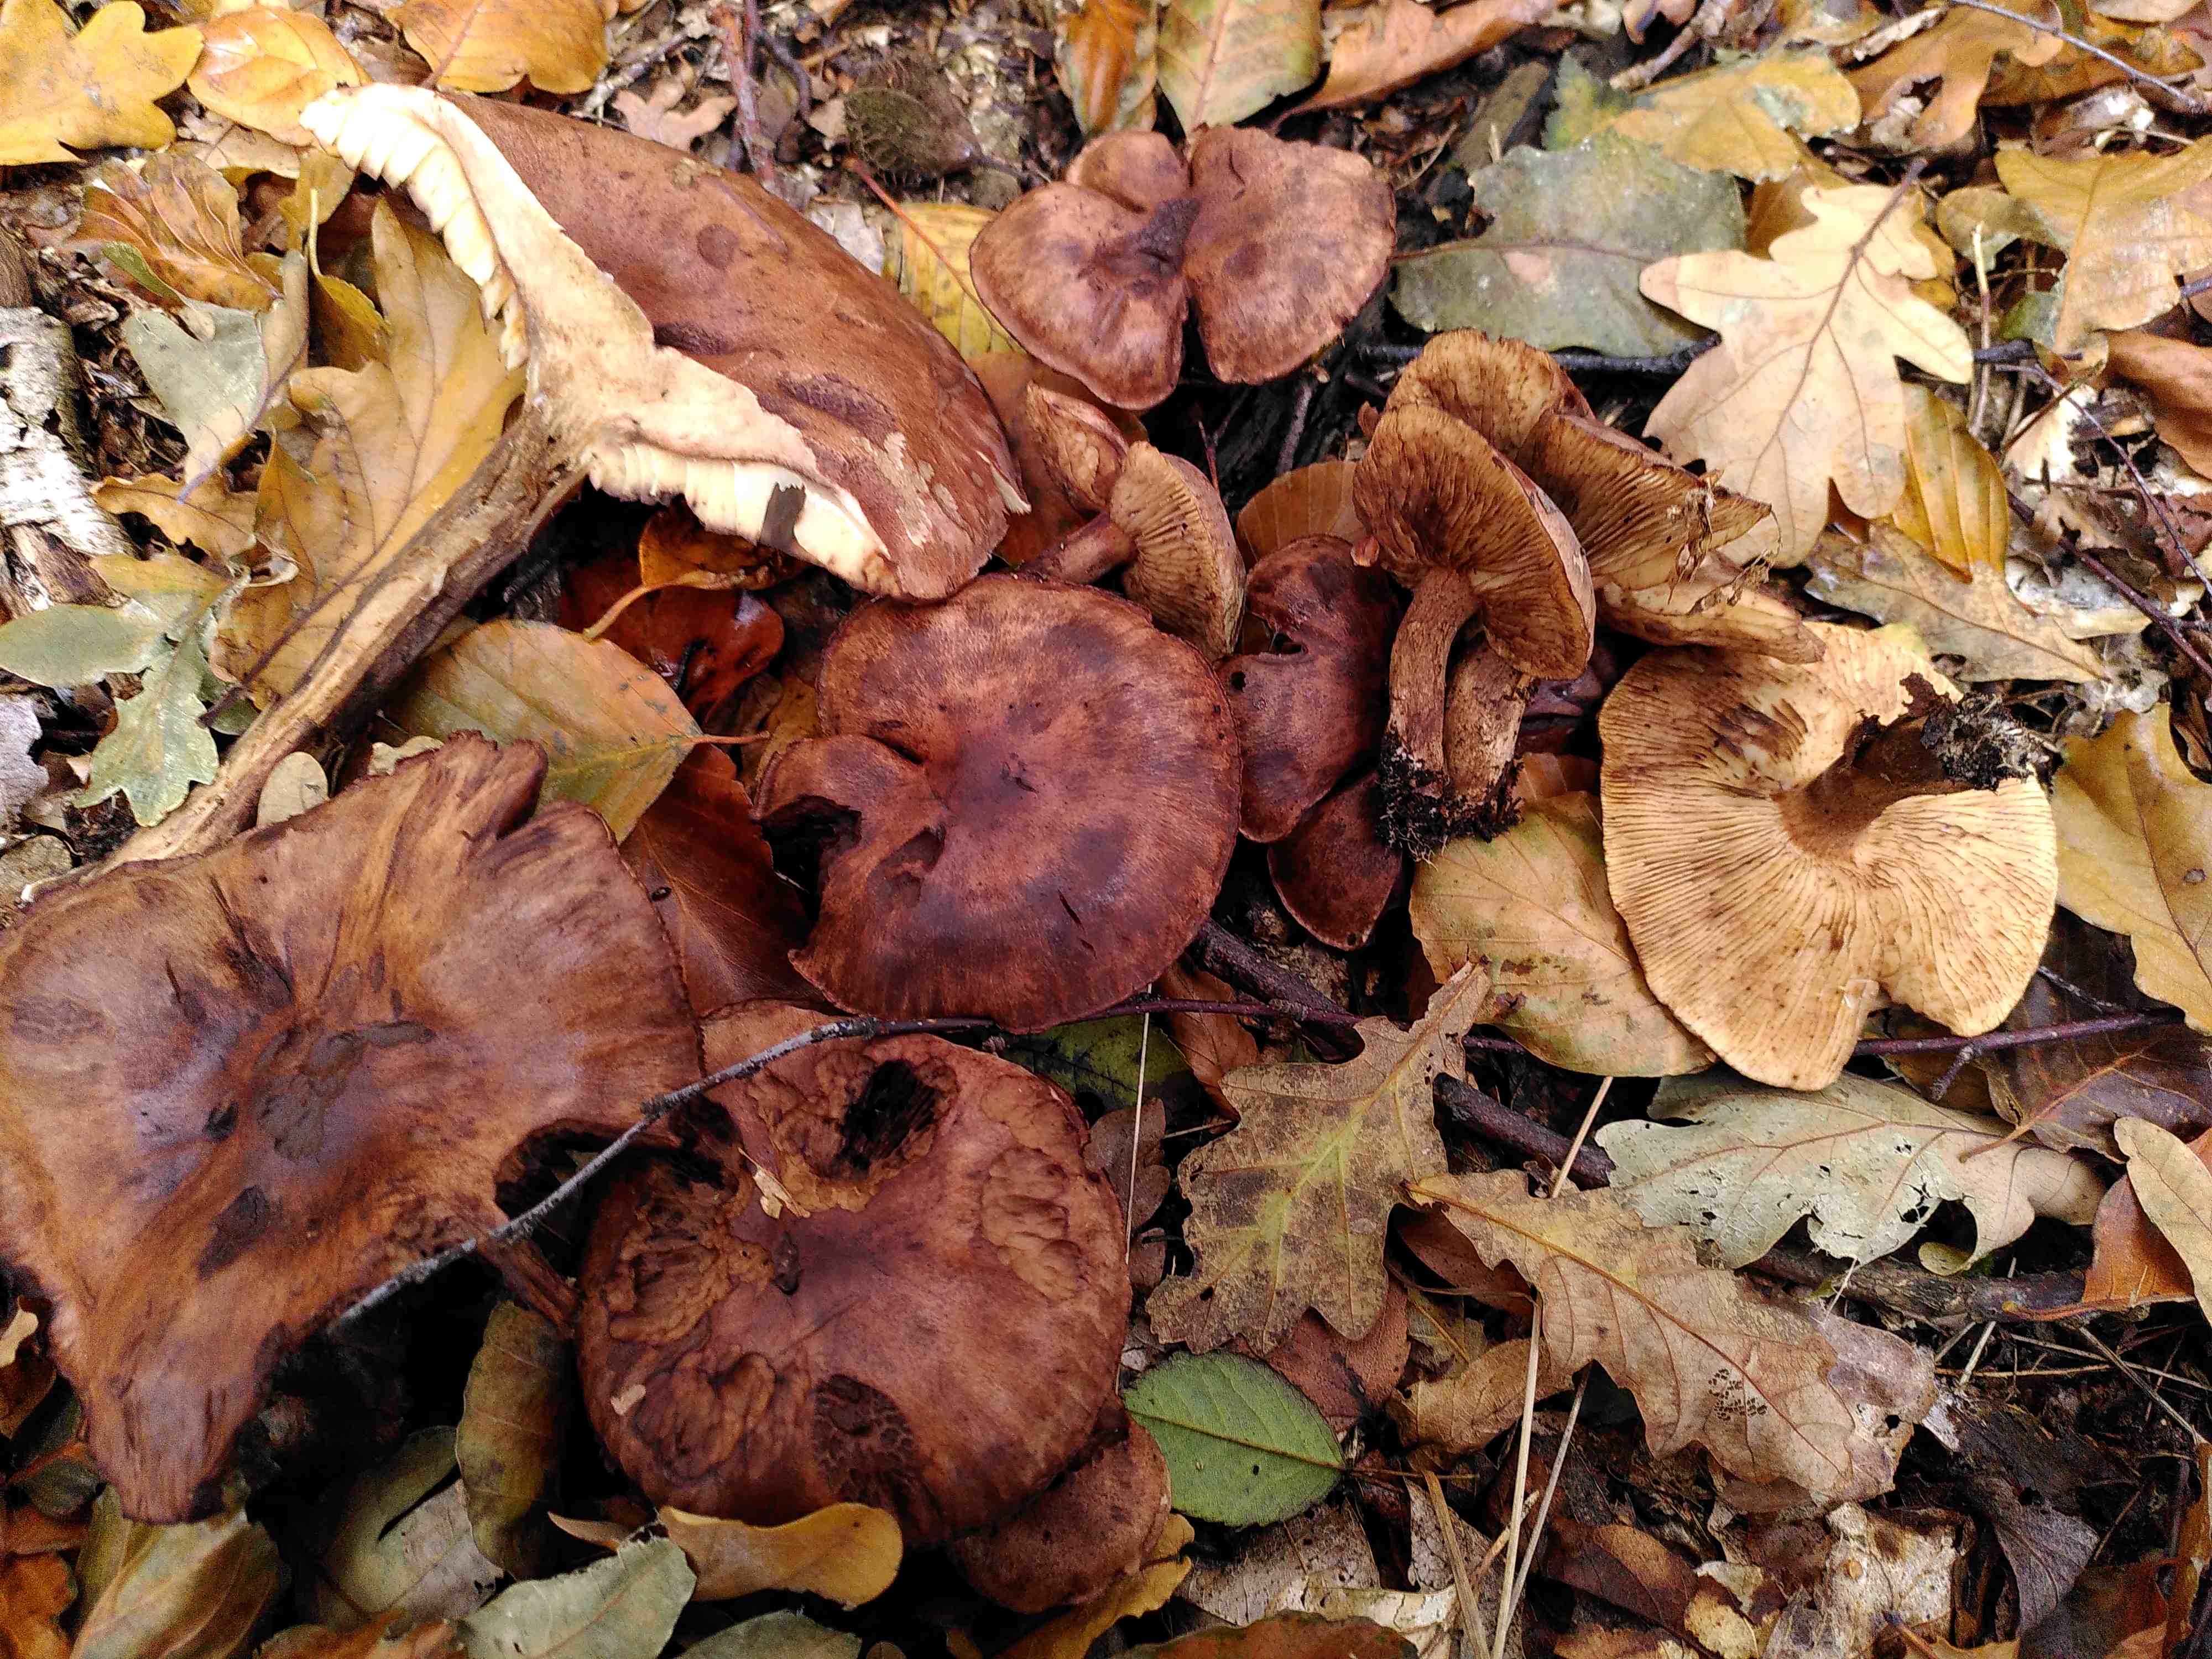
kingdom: Fungi
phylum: Basidiomycota
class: Agaricomycetes
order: Agaricales
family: Tricholomataceae
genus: Tricholoma
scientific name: Tricholoma
